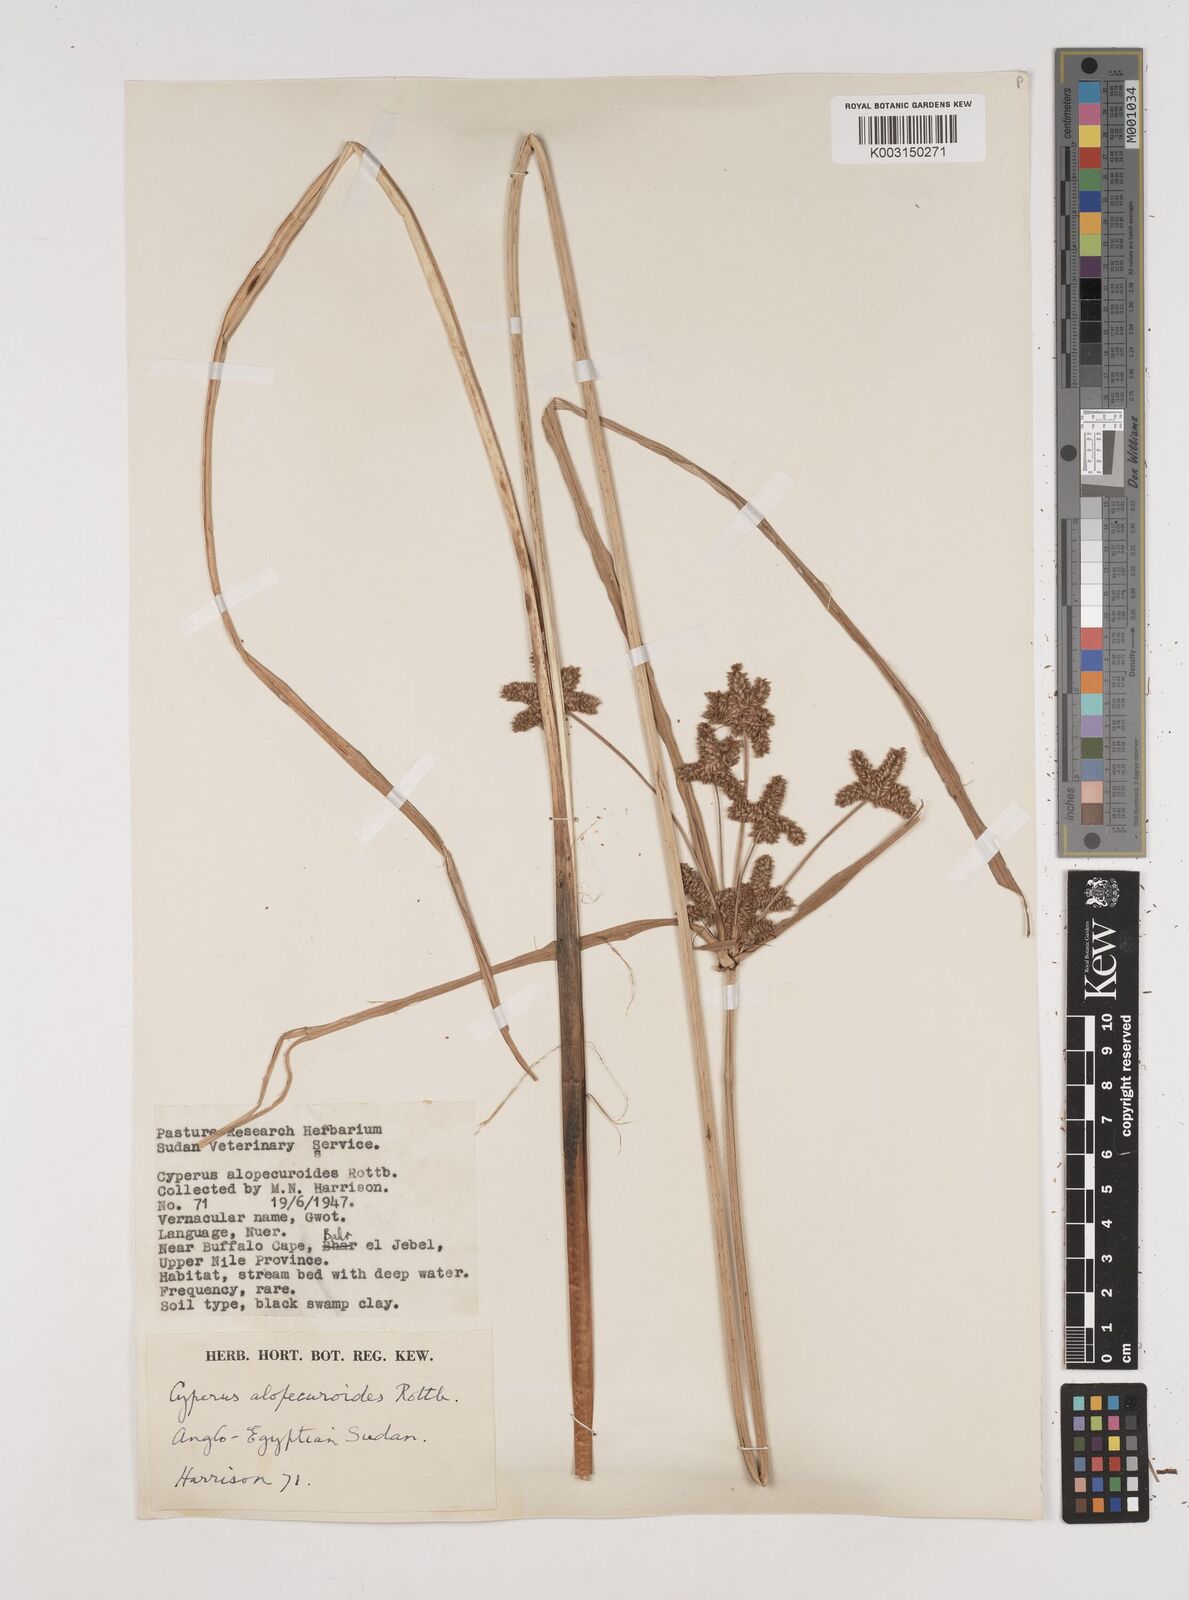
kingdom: Plantae
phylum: Tracheophyta
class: Liliopsida
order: Poales
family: Cyperaceae
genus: Cyperus
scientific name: Cyperus alopecuroides
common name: Foxtail flatsedge
